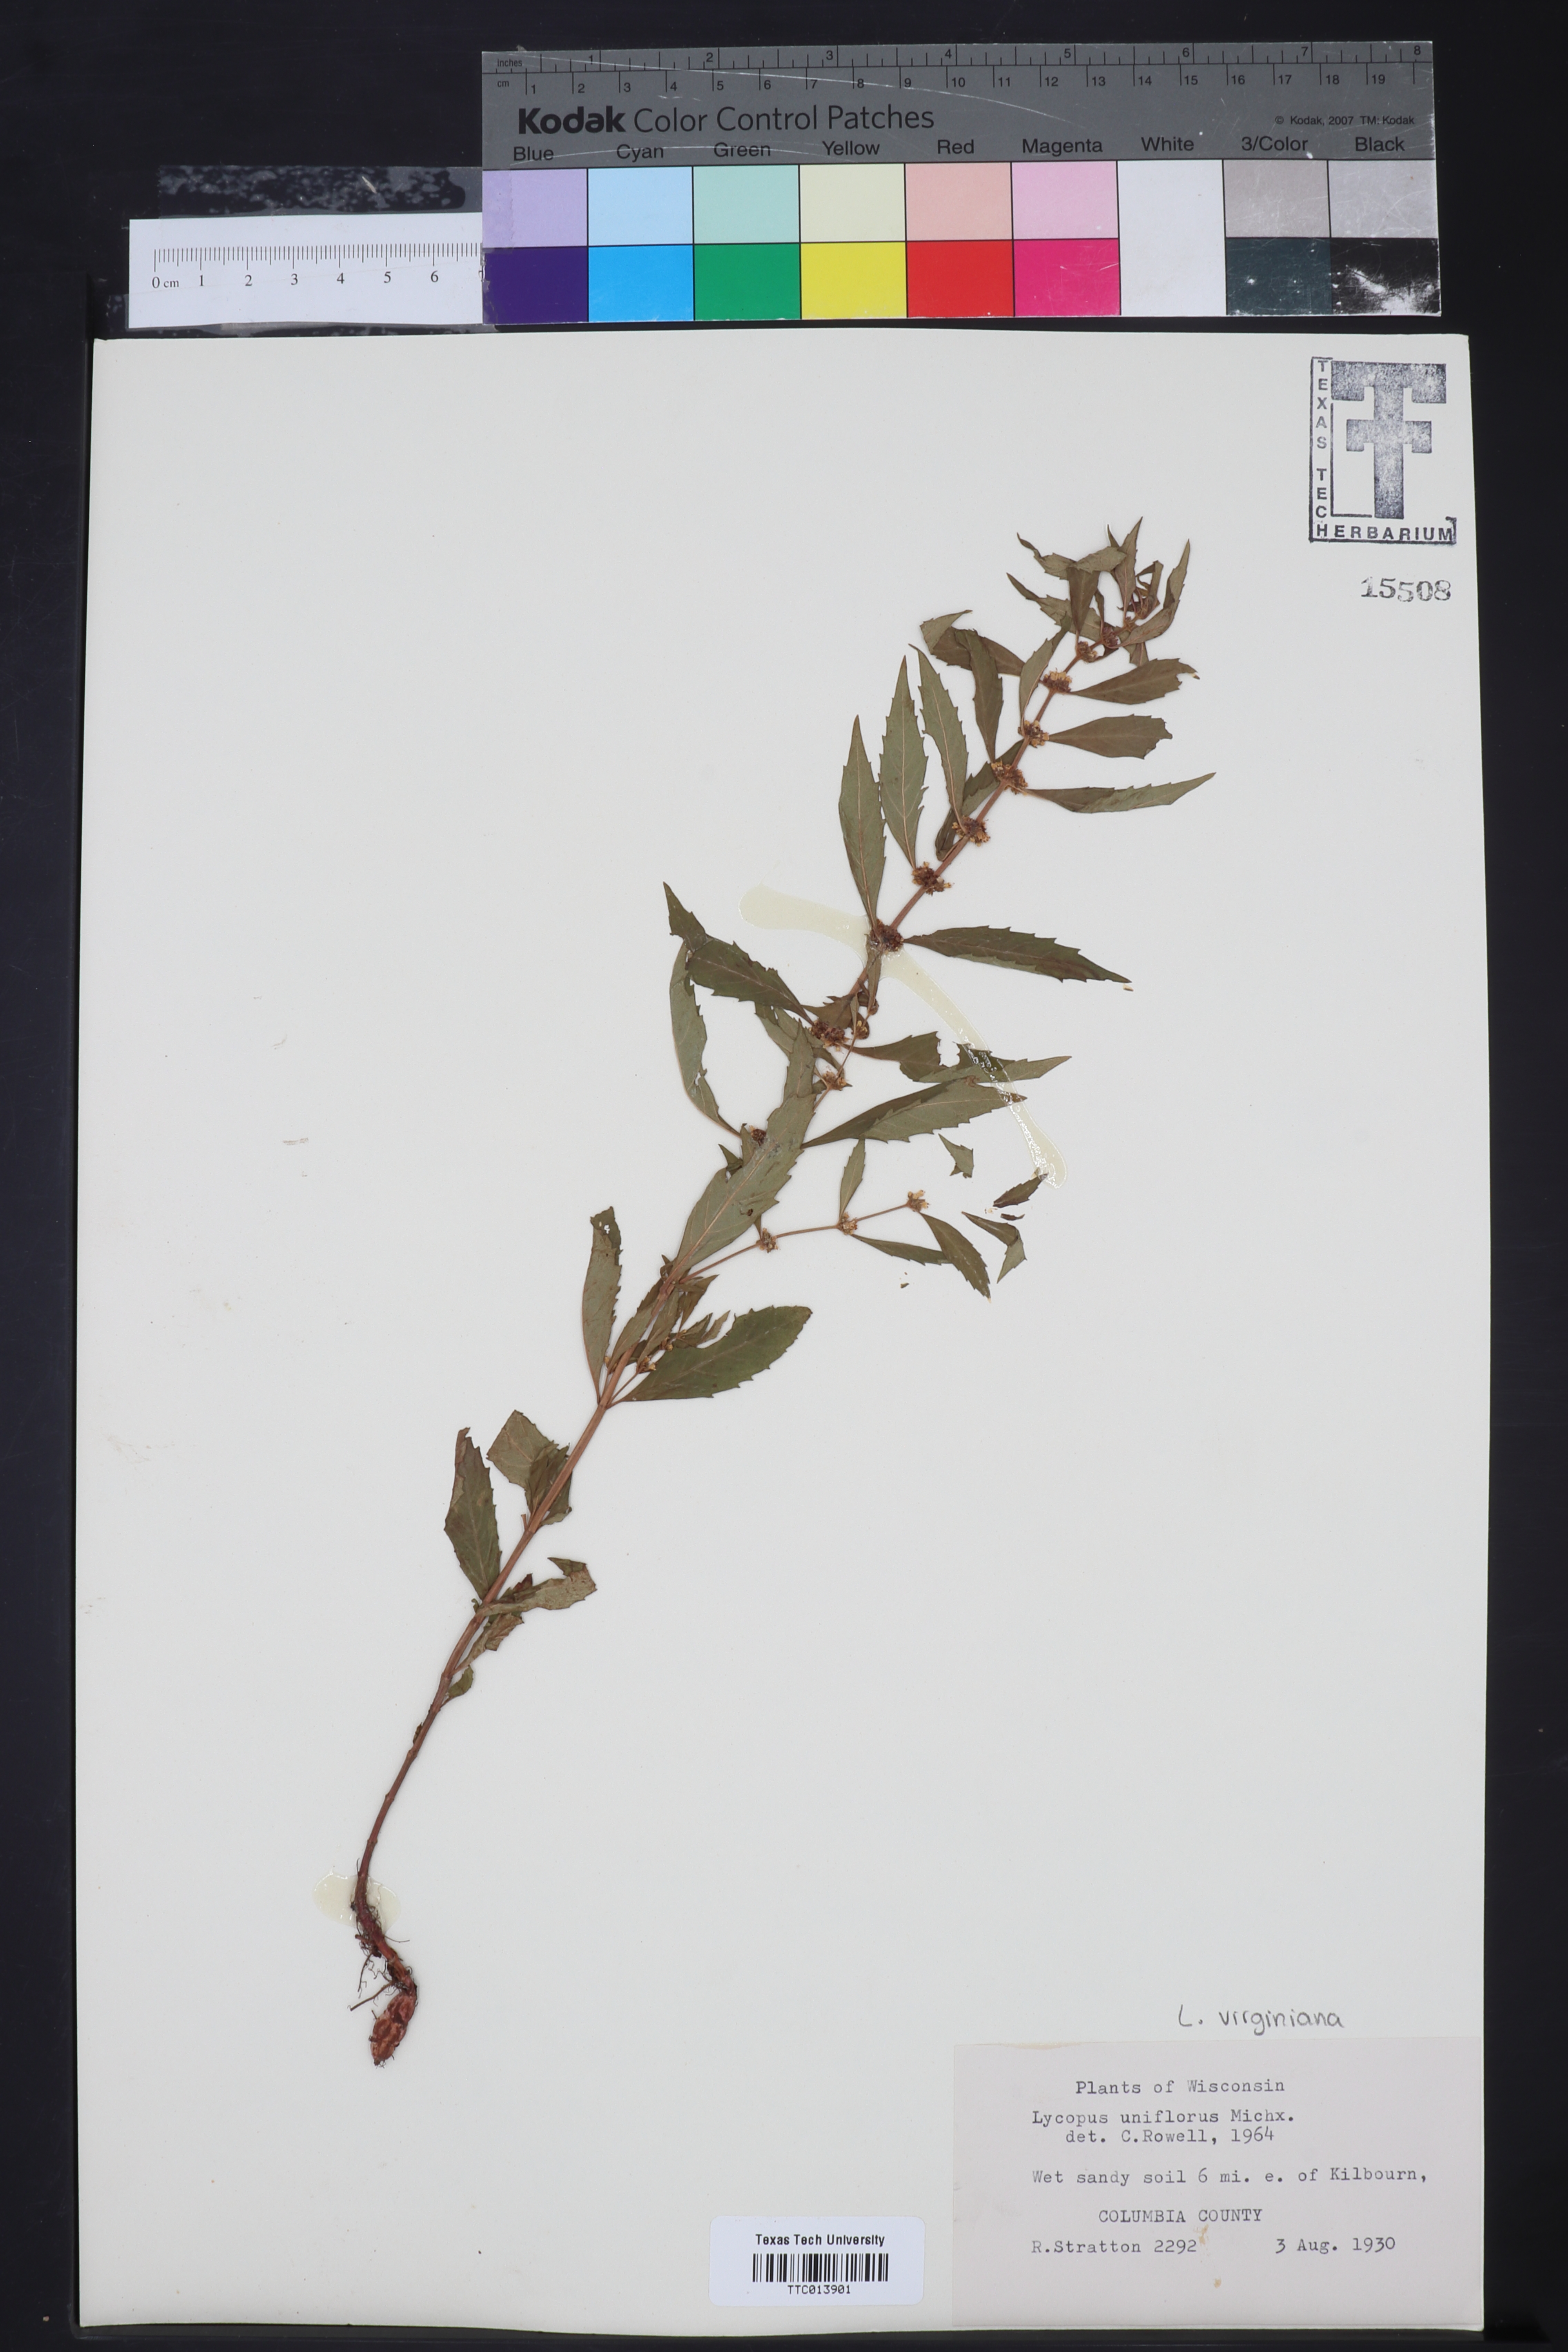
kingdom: Plantae
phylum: Tracheophyta
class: Magnoliopsida
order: Lamiales
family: Lamiaceae
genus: Lycopus
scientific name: Lycopus uniflorus
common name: Northern bugleweed
